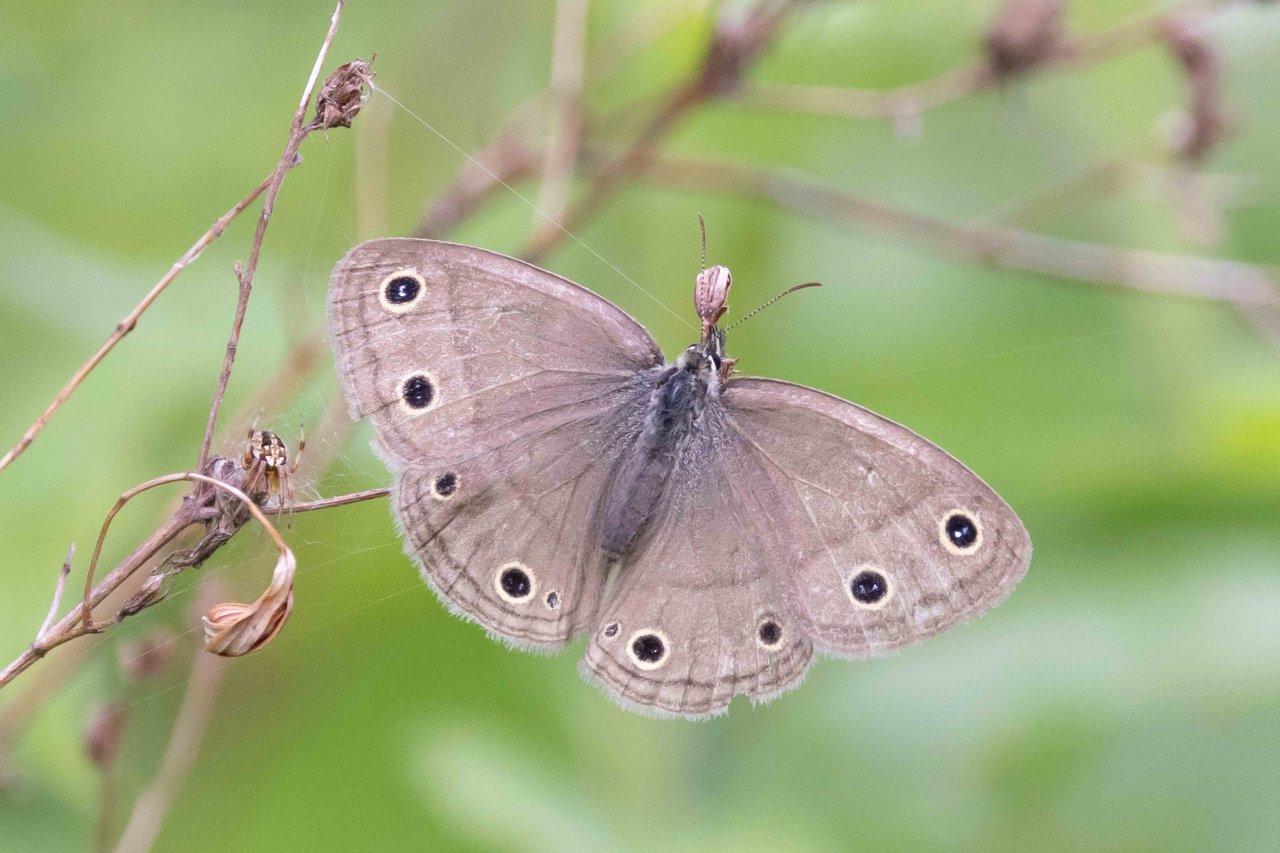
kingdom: Animalia
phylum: Arthropoda
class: Insecta
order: Lepidoptera
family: Nymphalidae
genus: Euptychia
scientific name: Euptychia cymela
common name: Little Wood Satyr
